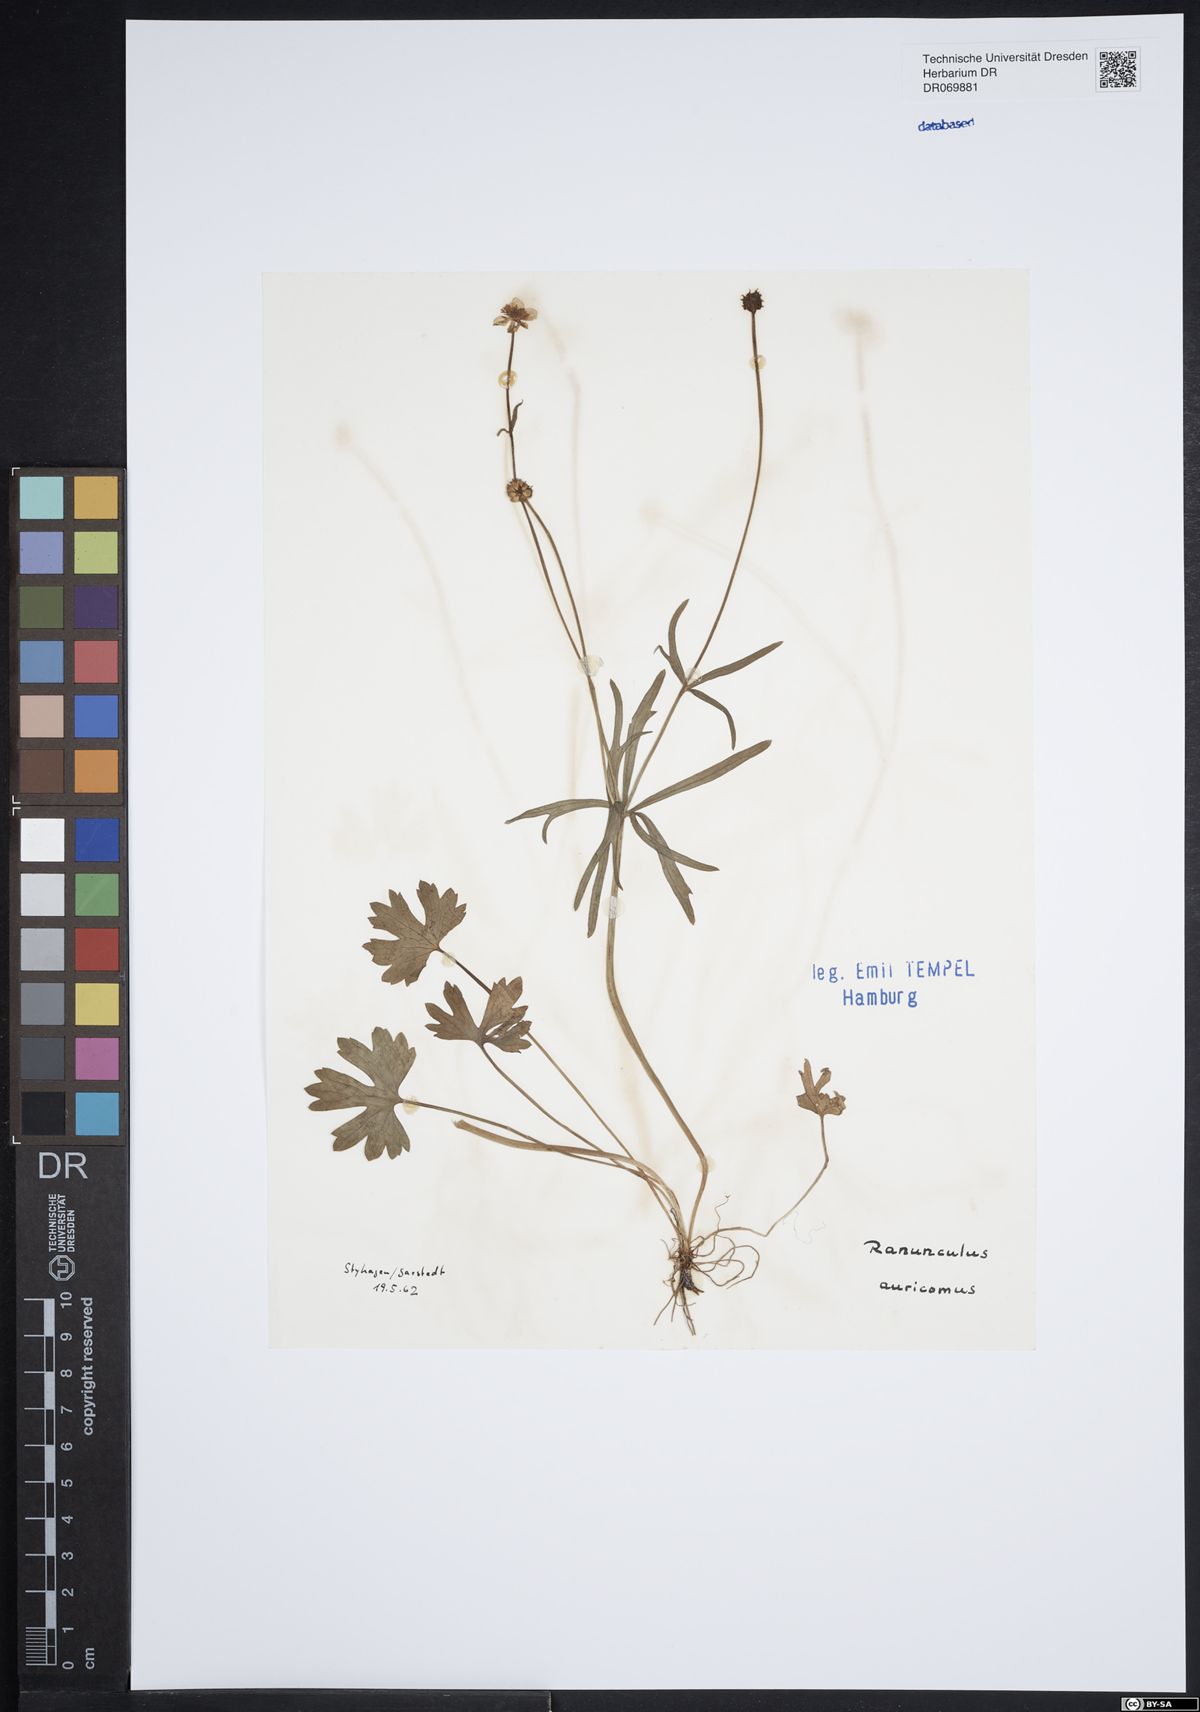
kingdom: Plantae
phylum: Tracheophyta
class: Magnoliopsida
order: Ranunculales
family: Ranunculaceae
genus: Ranunculus
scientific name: Ranunculus auricomus
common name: Goldilocks buttercup
